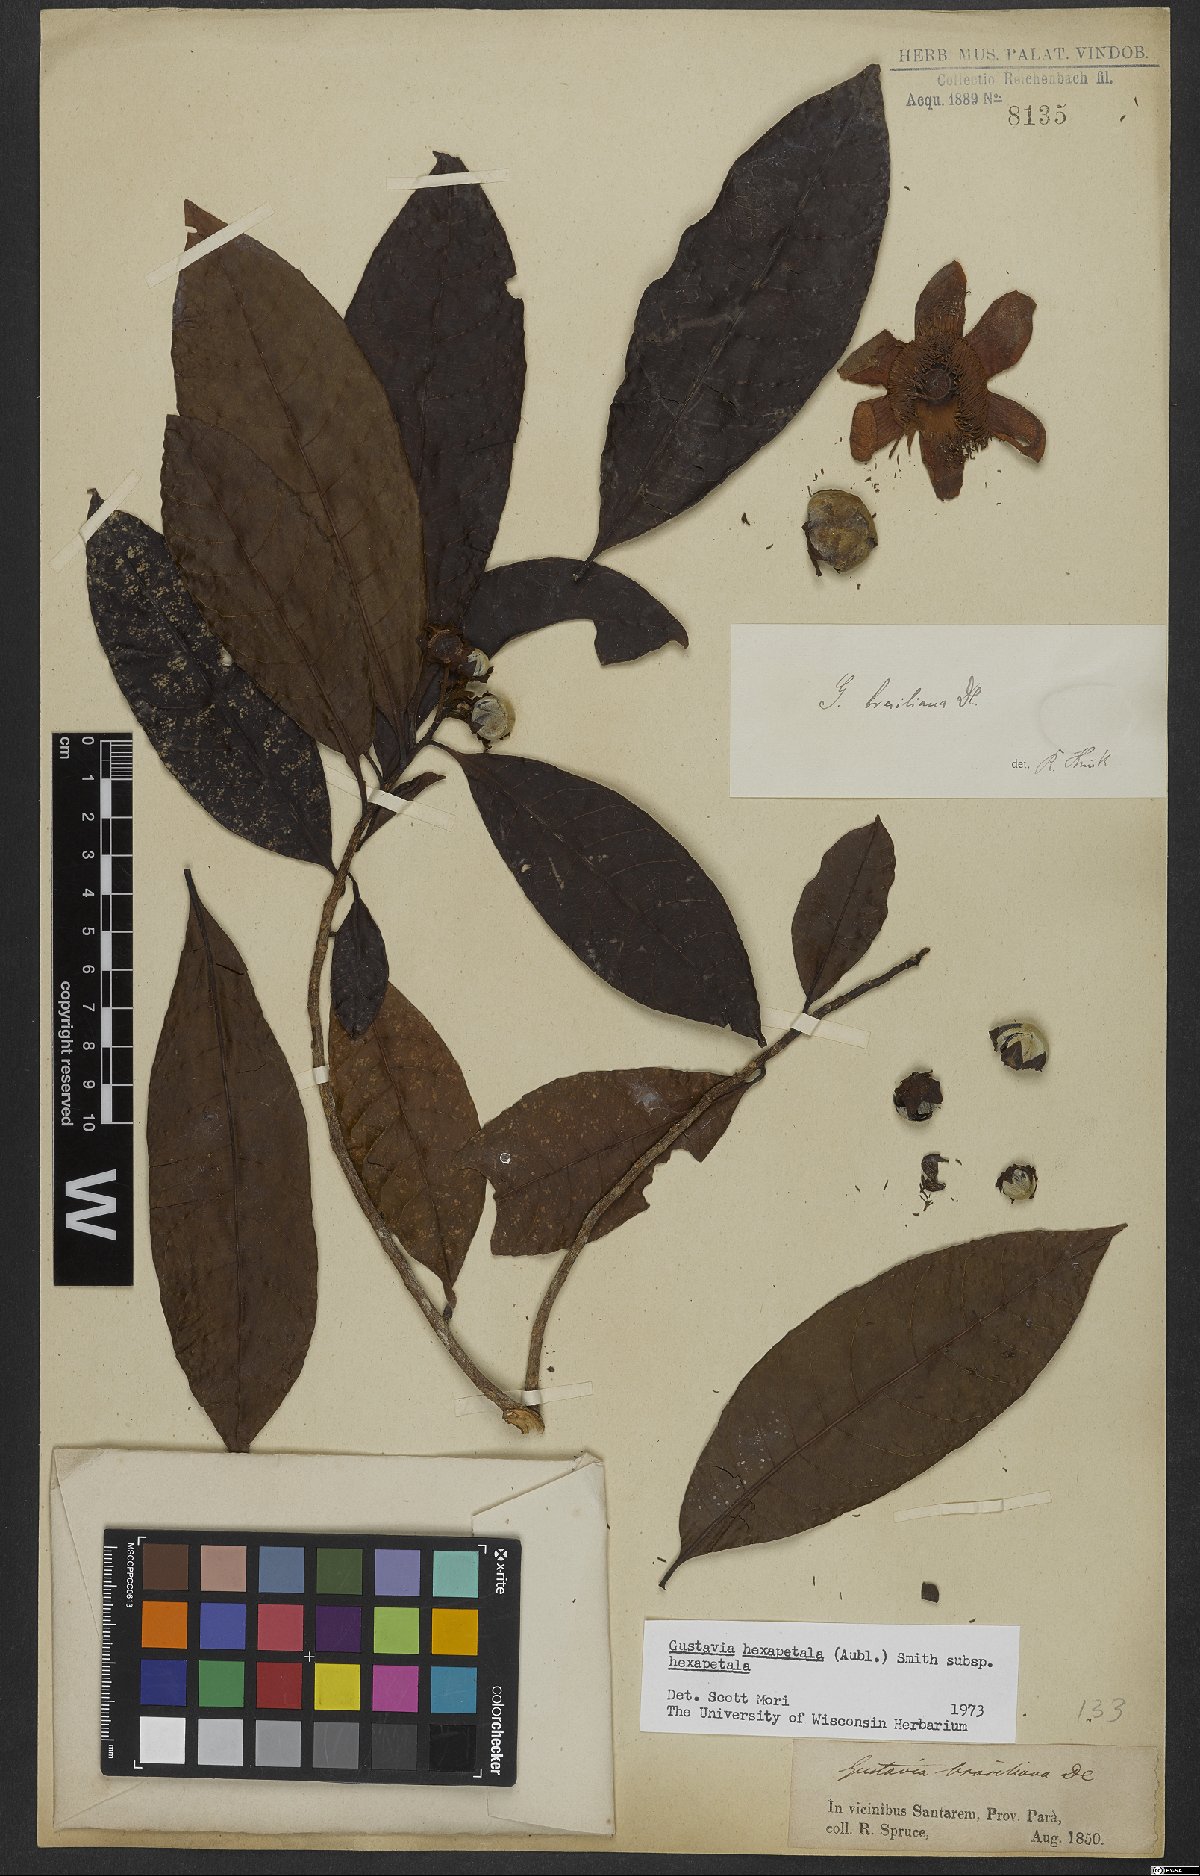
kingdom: Plantae
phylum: Tracheophyta
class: Magnoliopsida
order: Ericales
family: Lecythidaceae
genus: Gustavia
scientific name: Gustavia hexapetala
